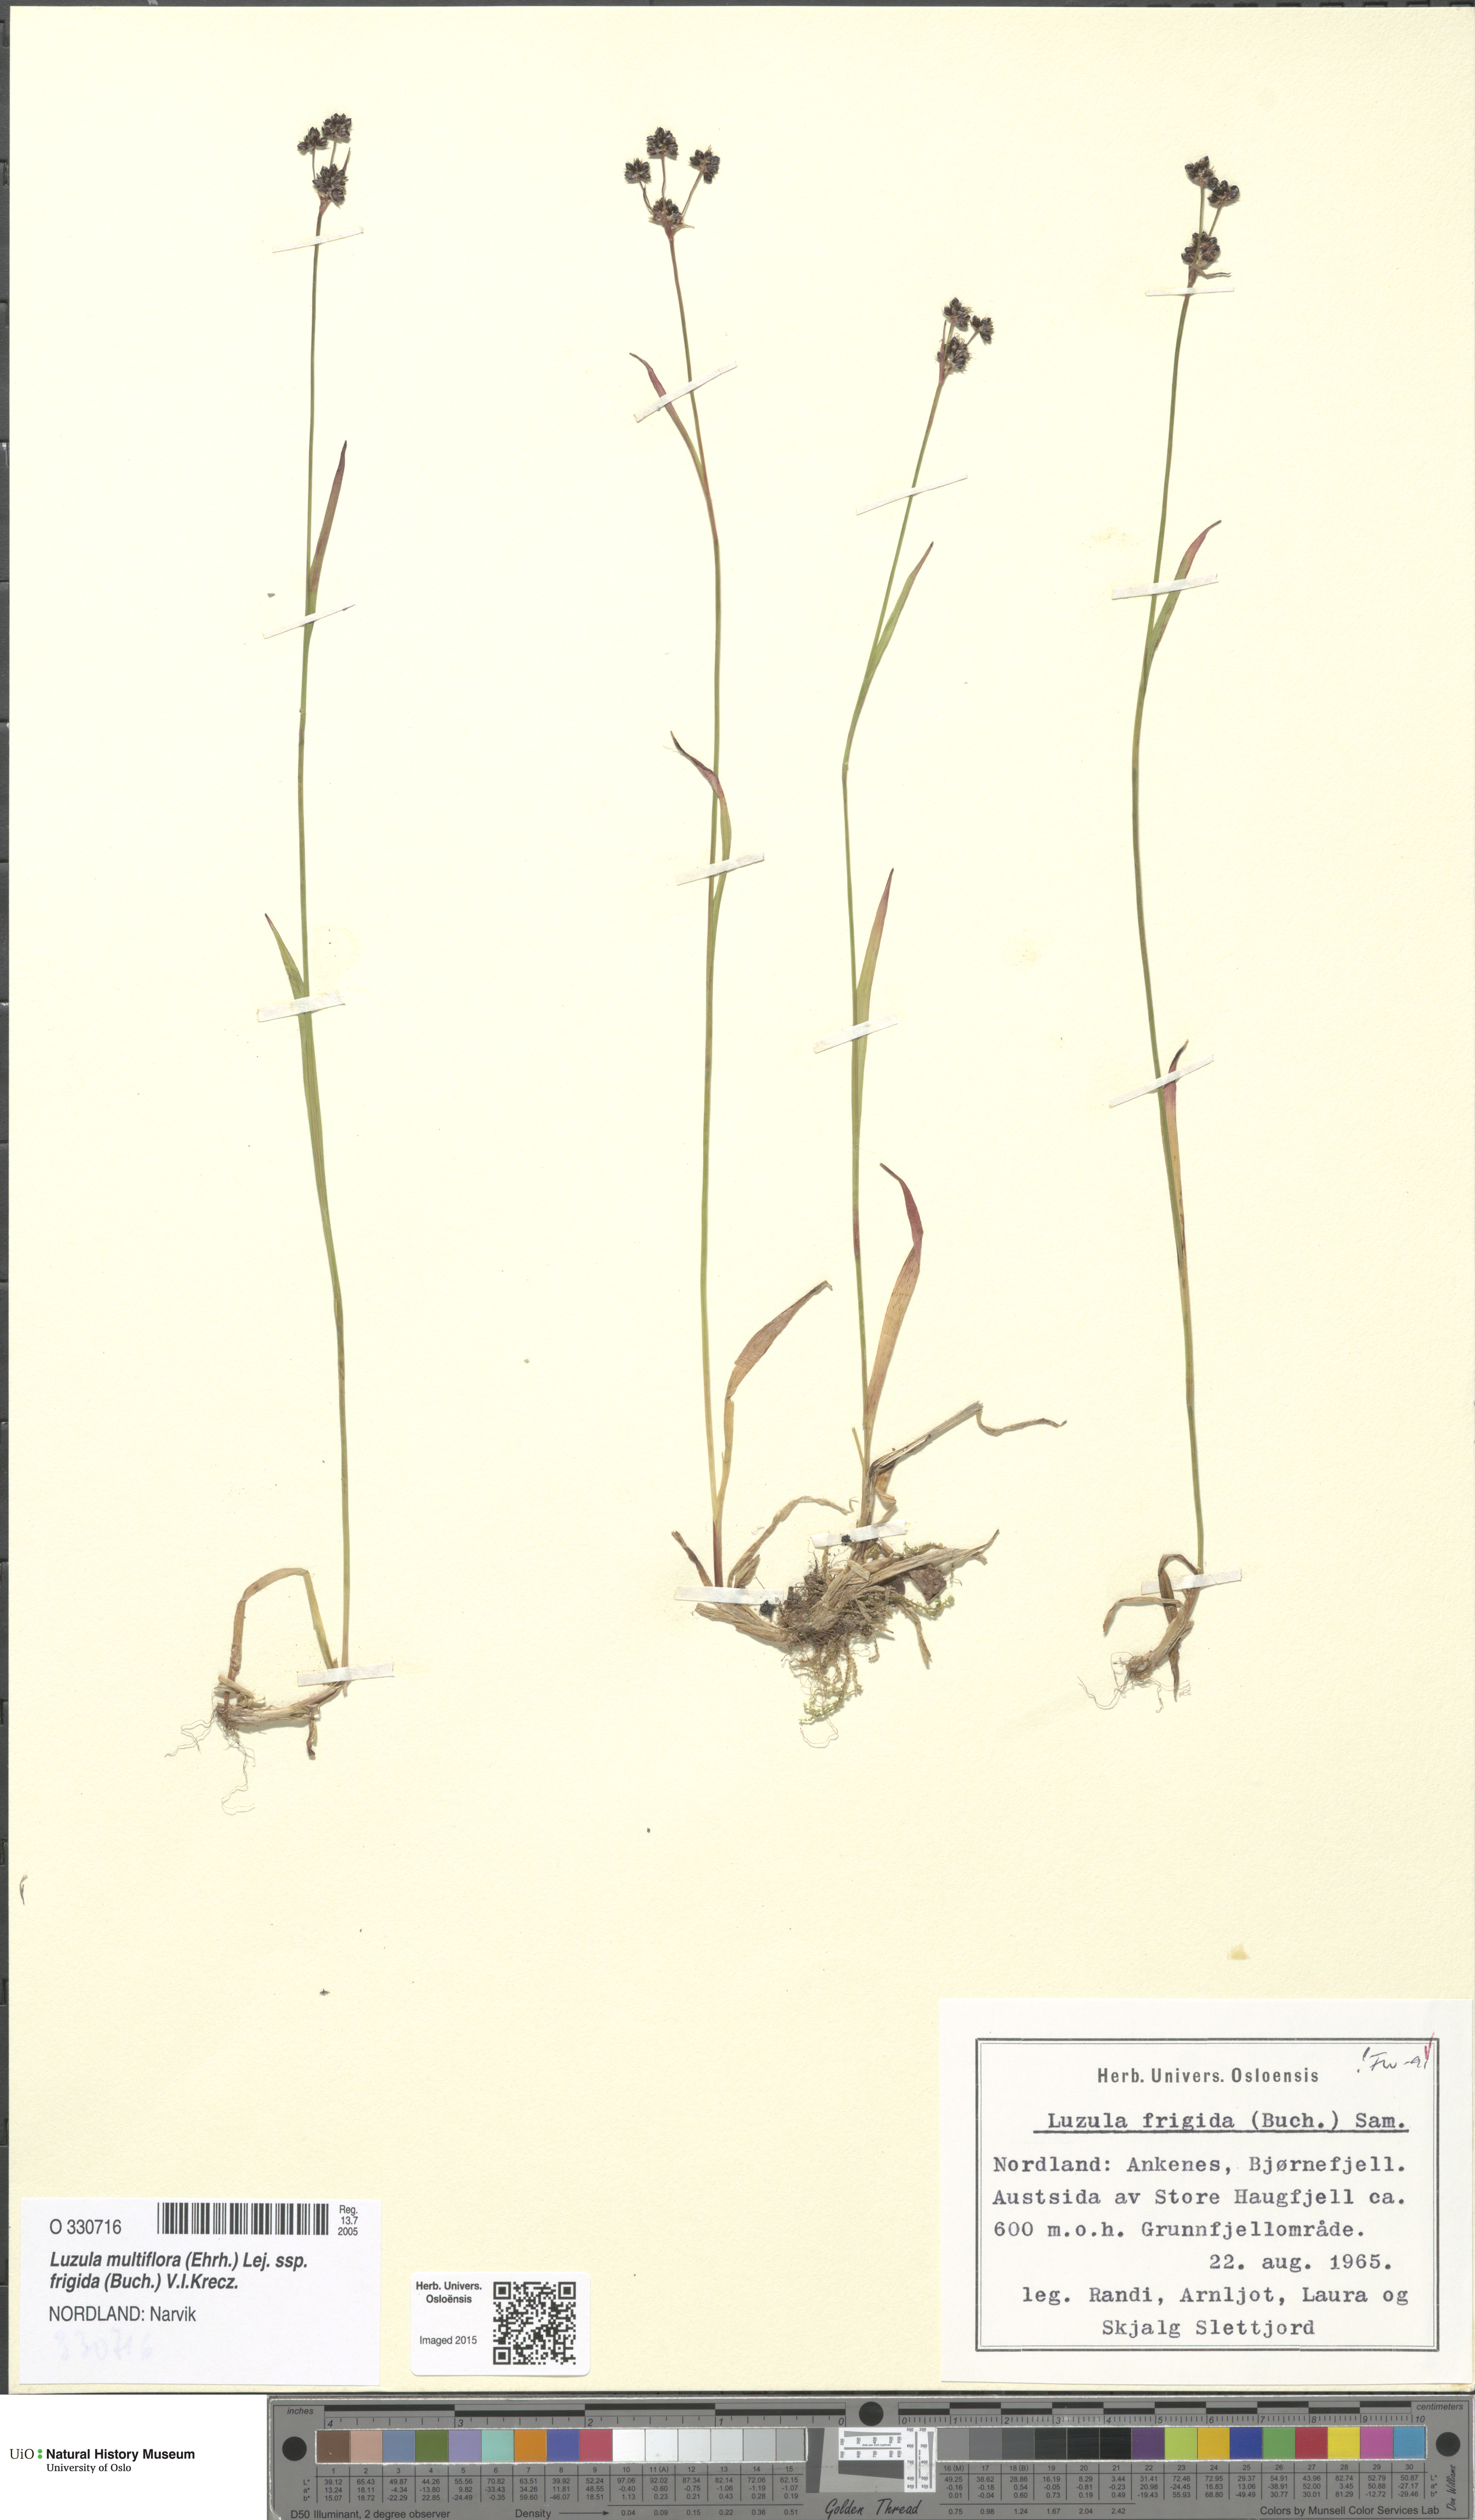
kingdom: Plantae
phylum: Tracheophyta
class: Liliopsida
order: Poales
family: Juncaceae
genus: Luzula
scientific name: Luzula multiflora
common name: Heath wood-rush
